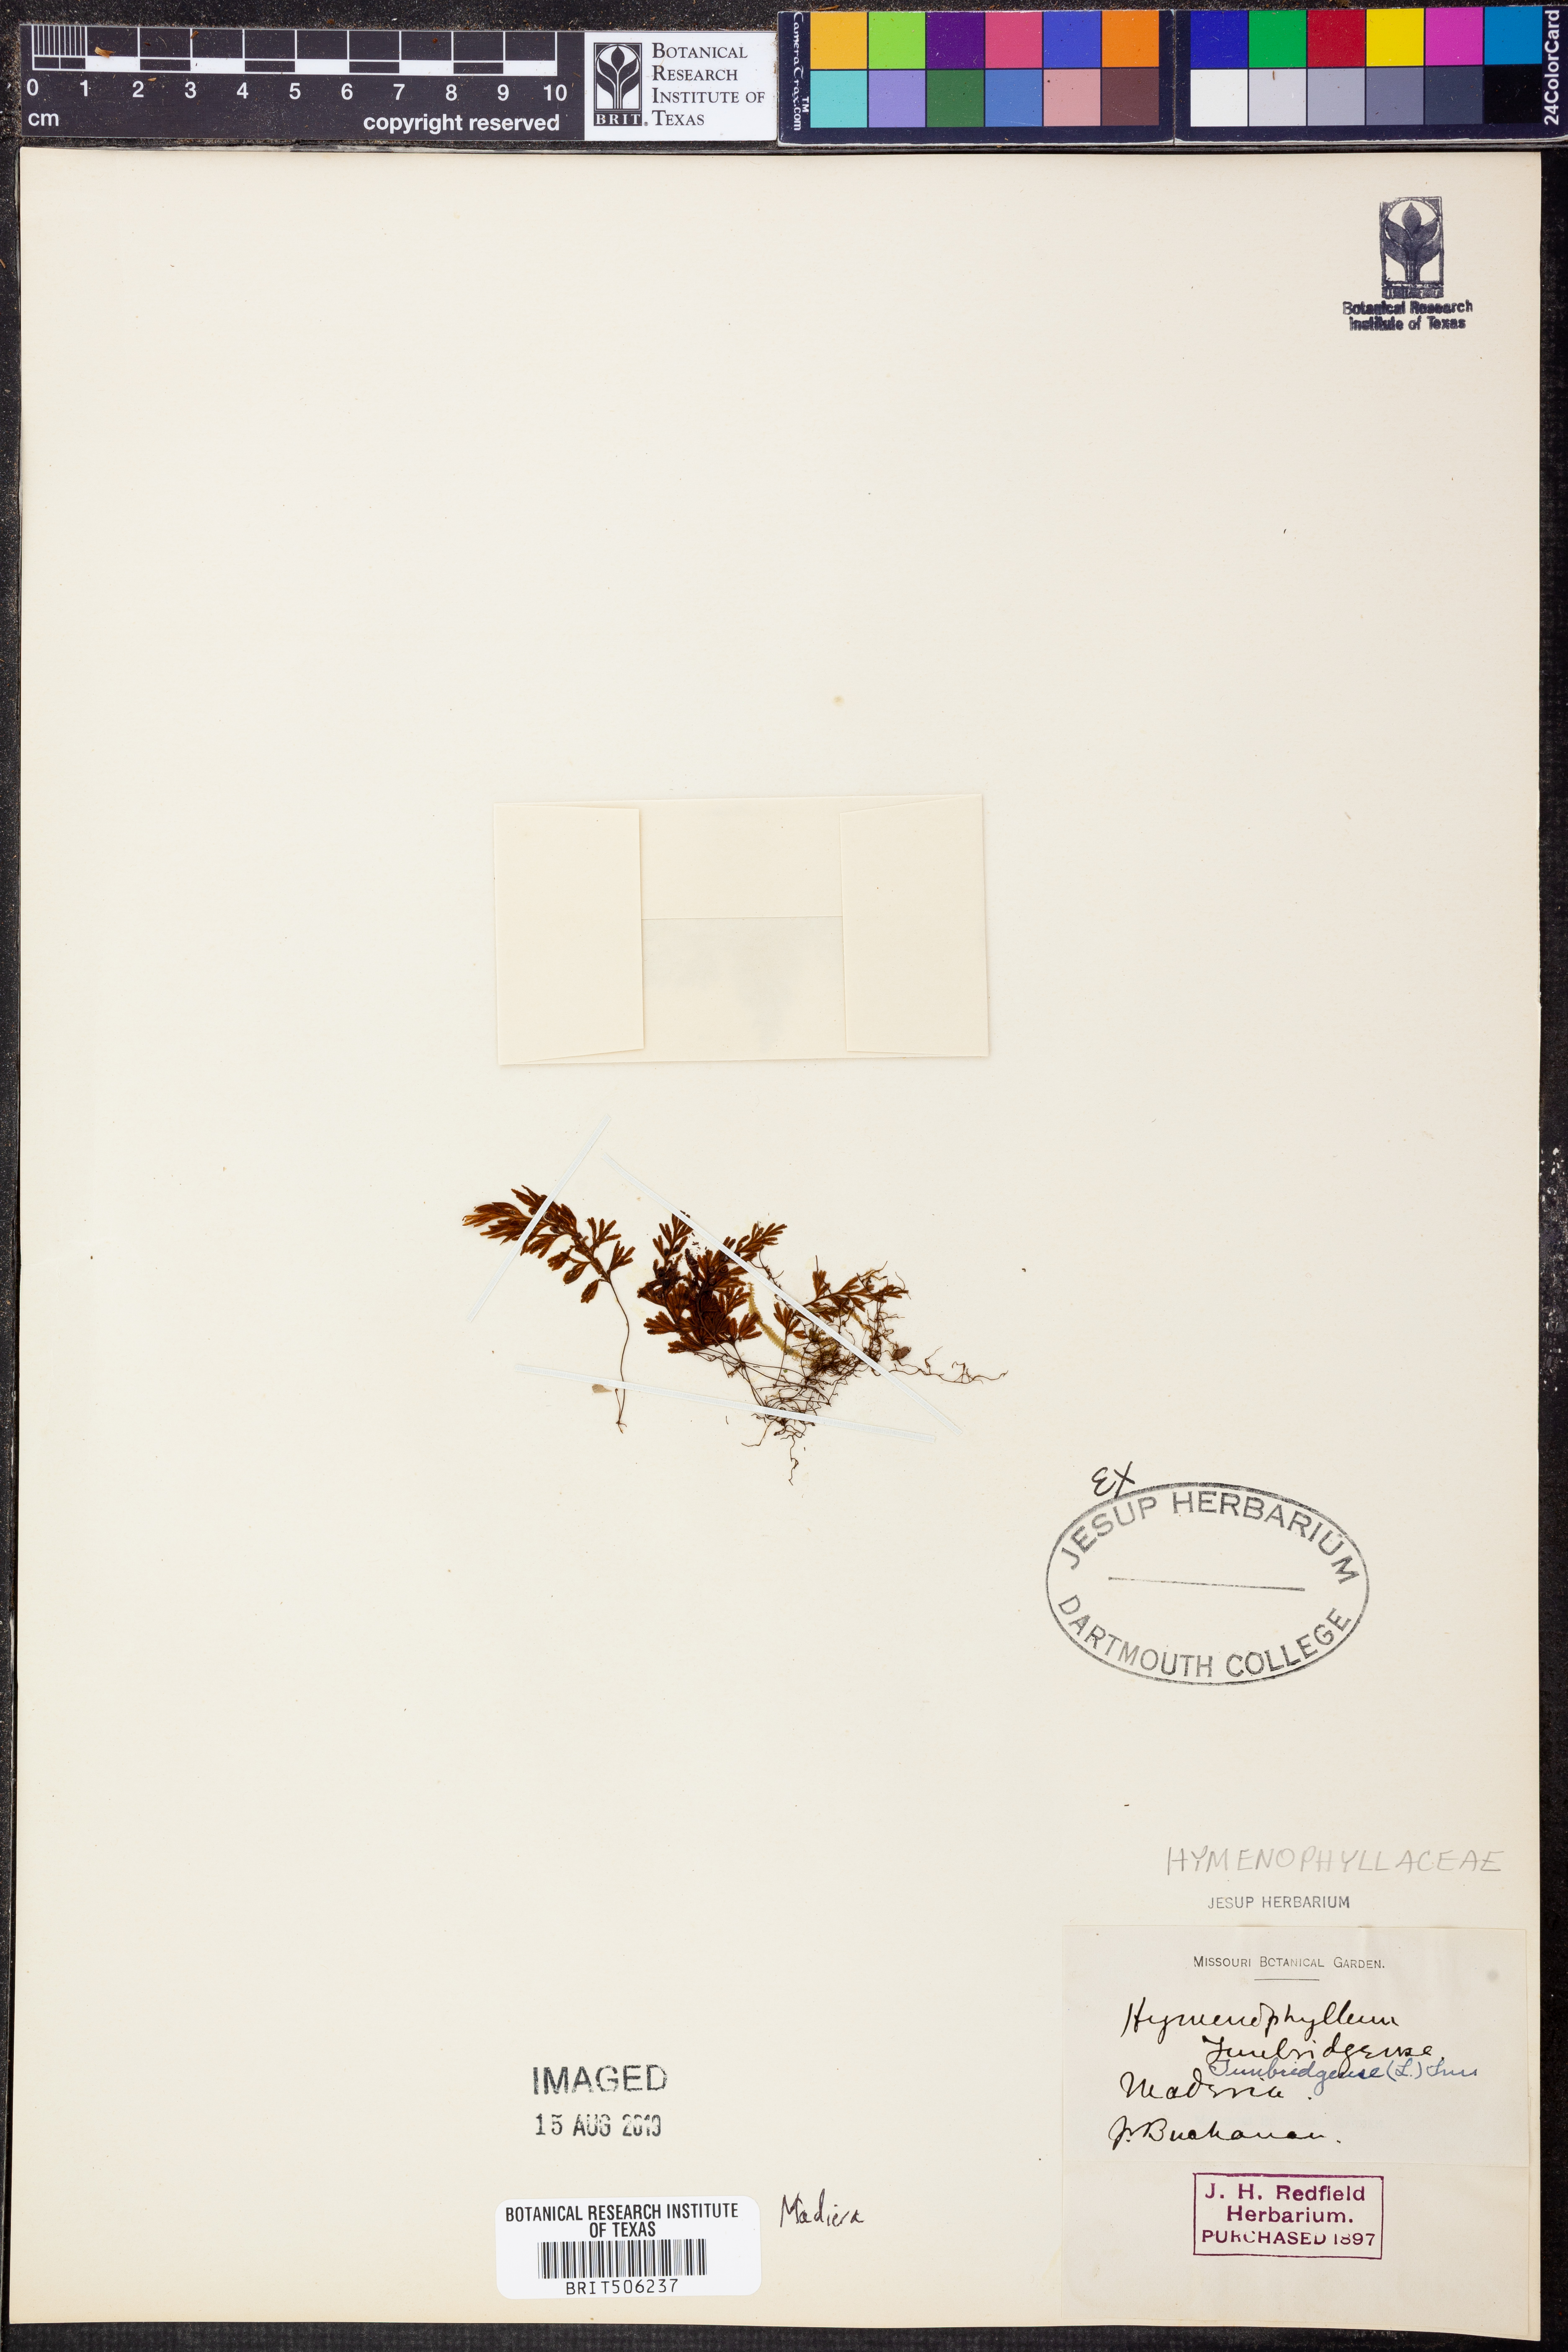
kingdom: Plantae
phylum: Tracheophyta
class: Polypodiopsida
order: Hymenophyllales
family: Hymenophyllaceae
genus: Hymenophyllum
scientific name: Hymenophyllum tunbridgense
